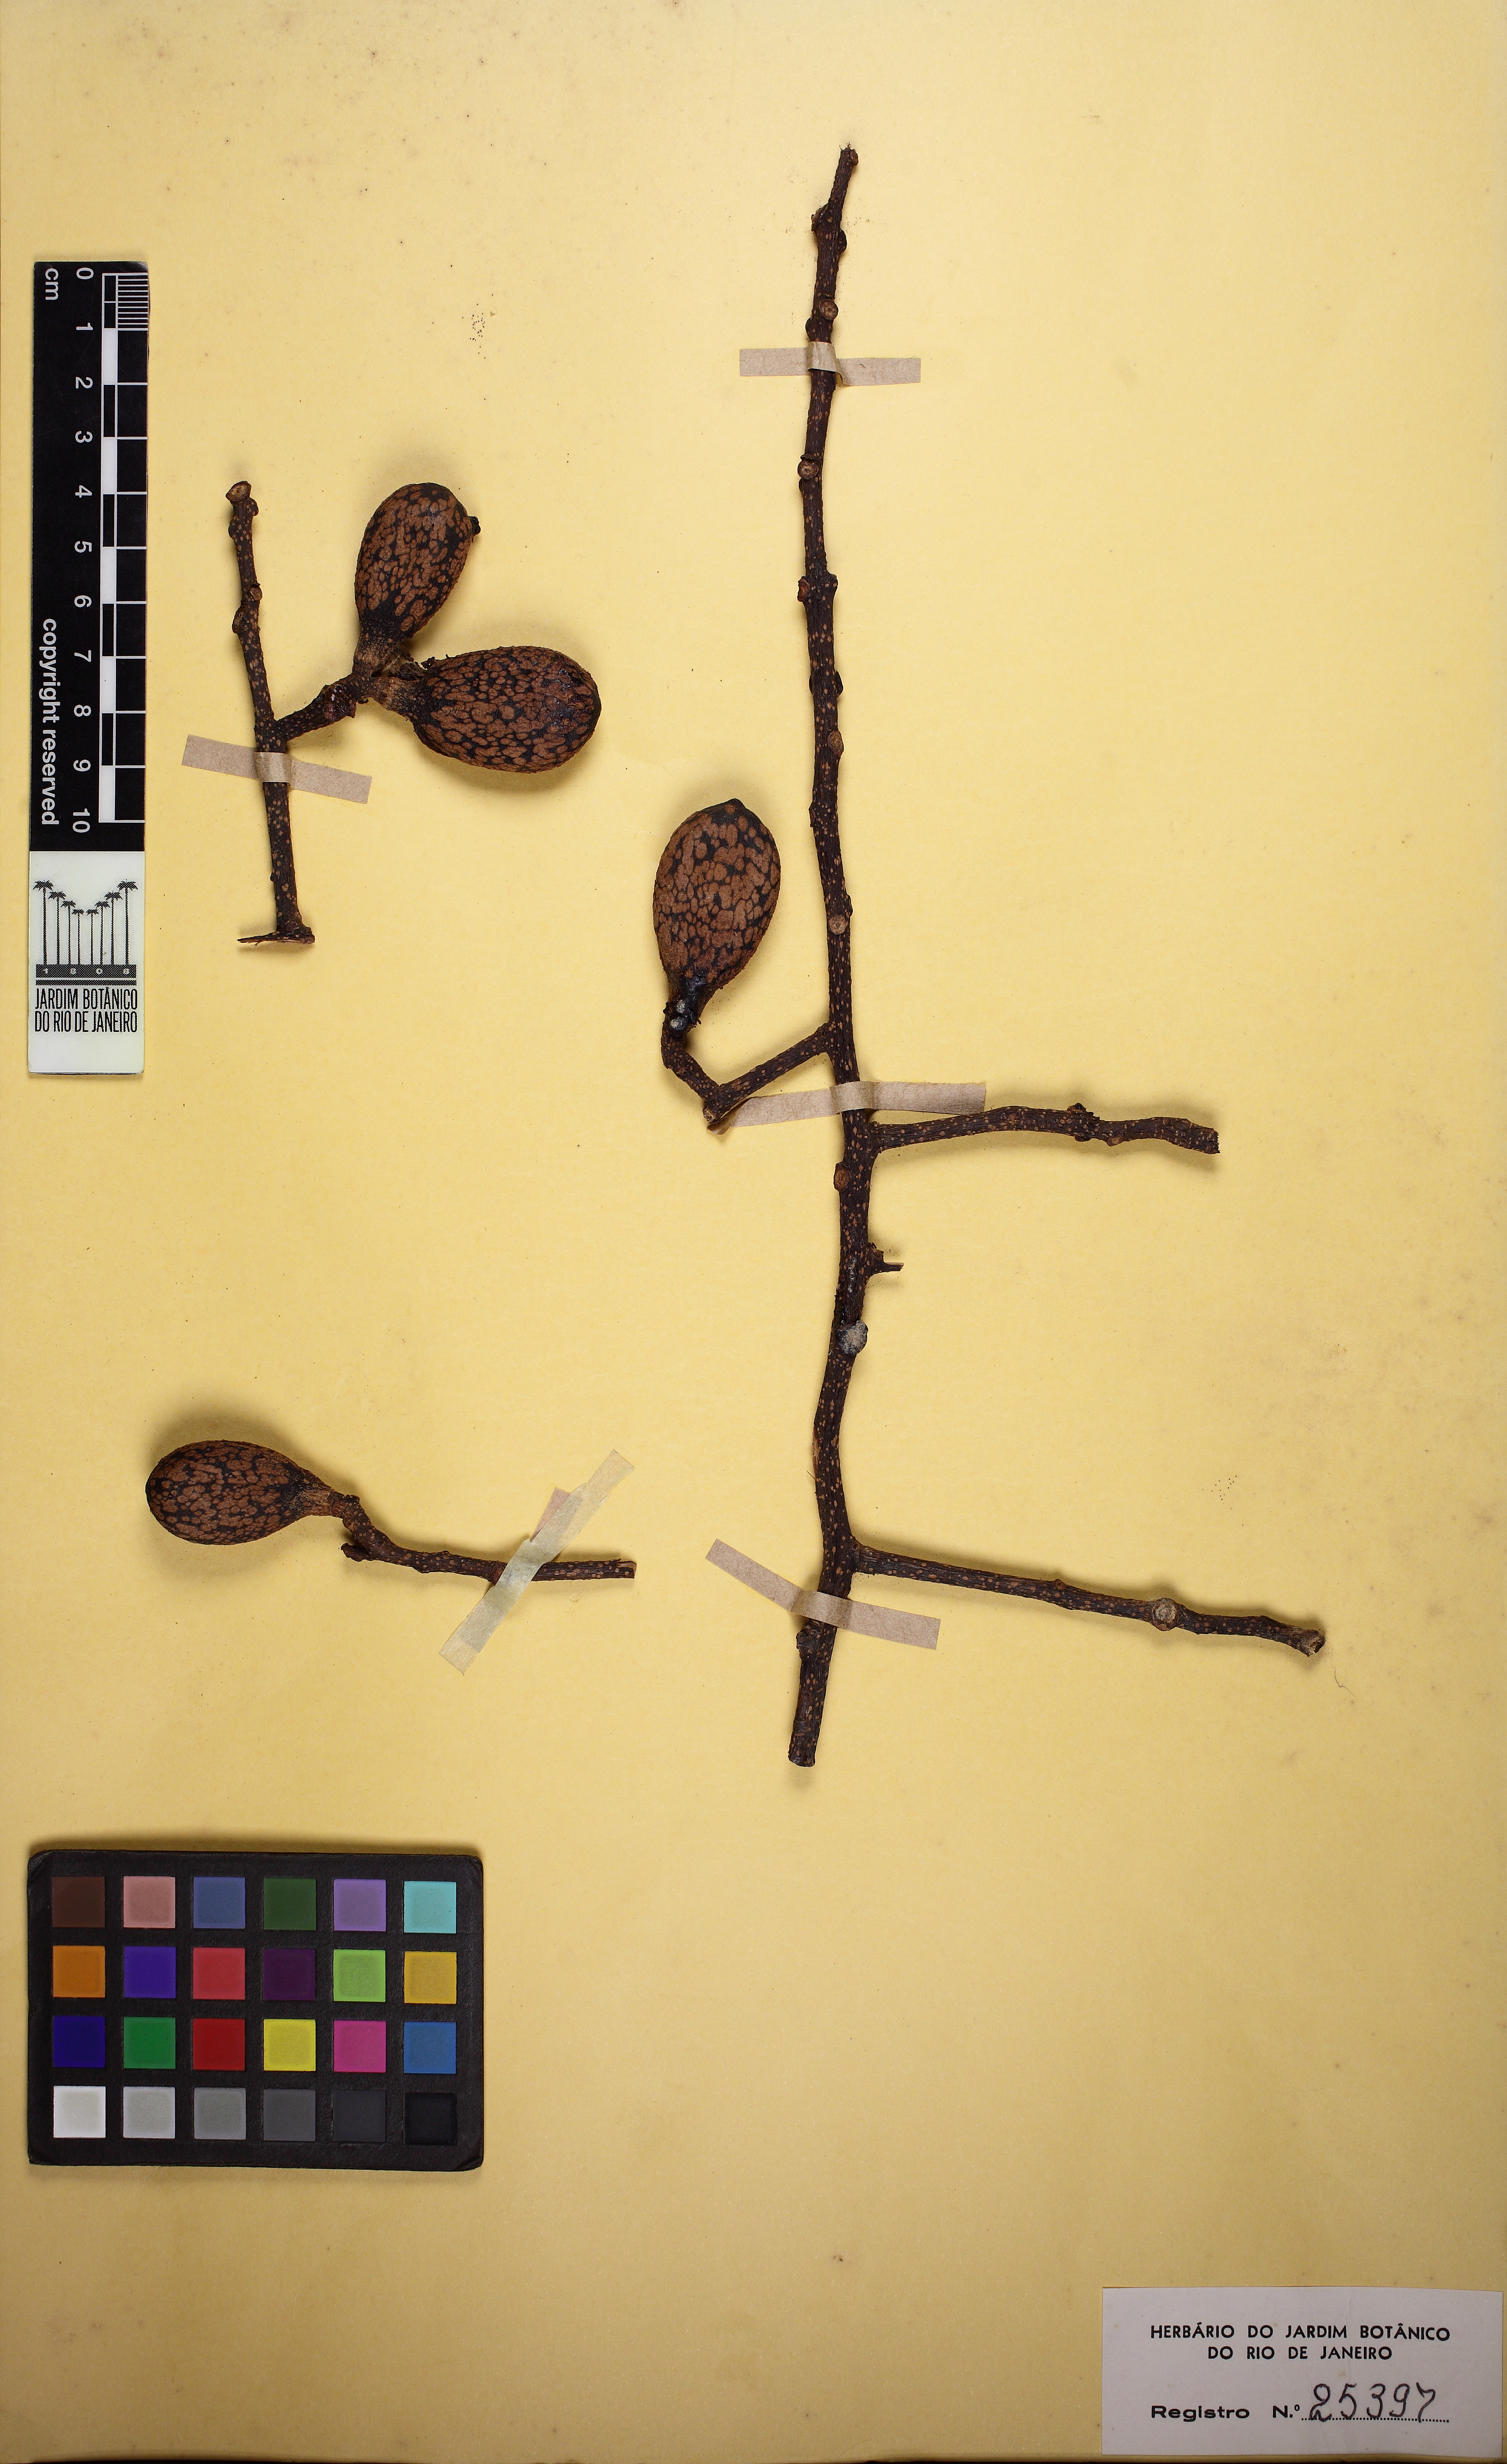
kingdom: Plantae
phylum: Tracheophyta
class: Magnoliopsida
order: Sapindales
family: Meliaceae
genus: Cedrela
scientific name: Cedrela fissilis
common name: Argentine cedar
